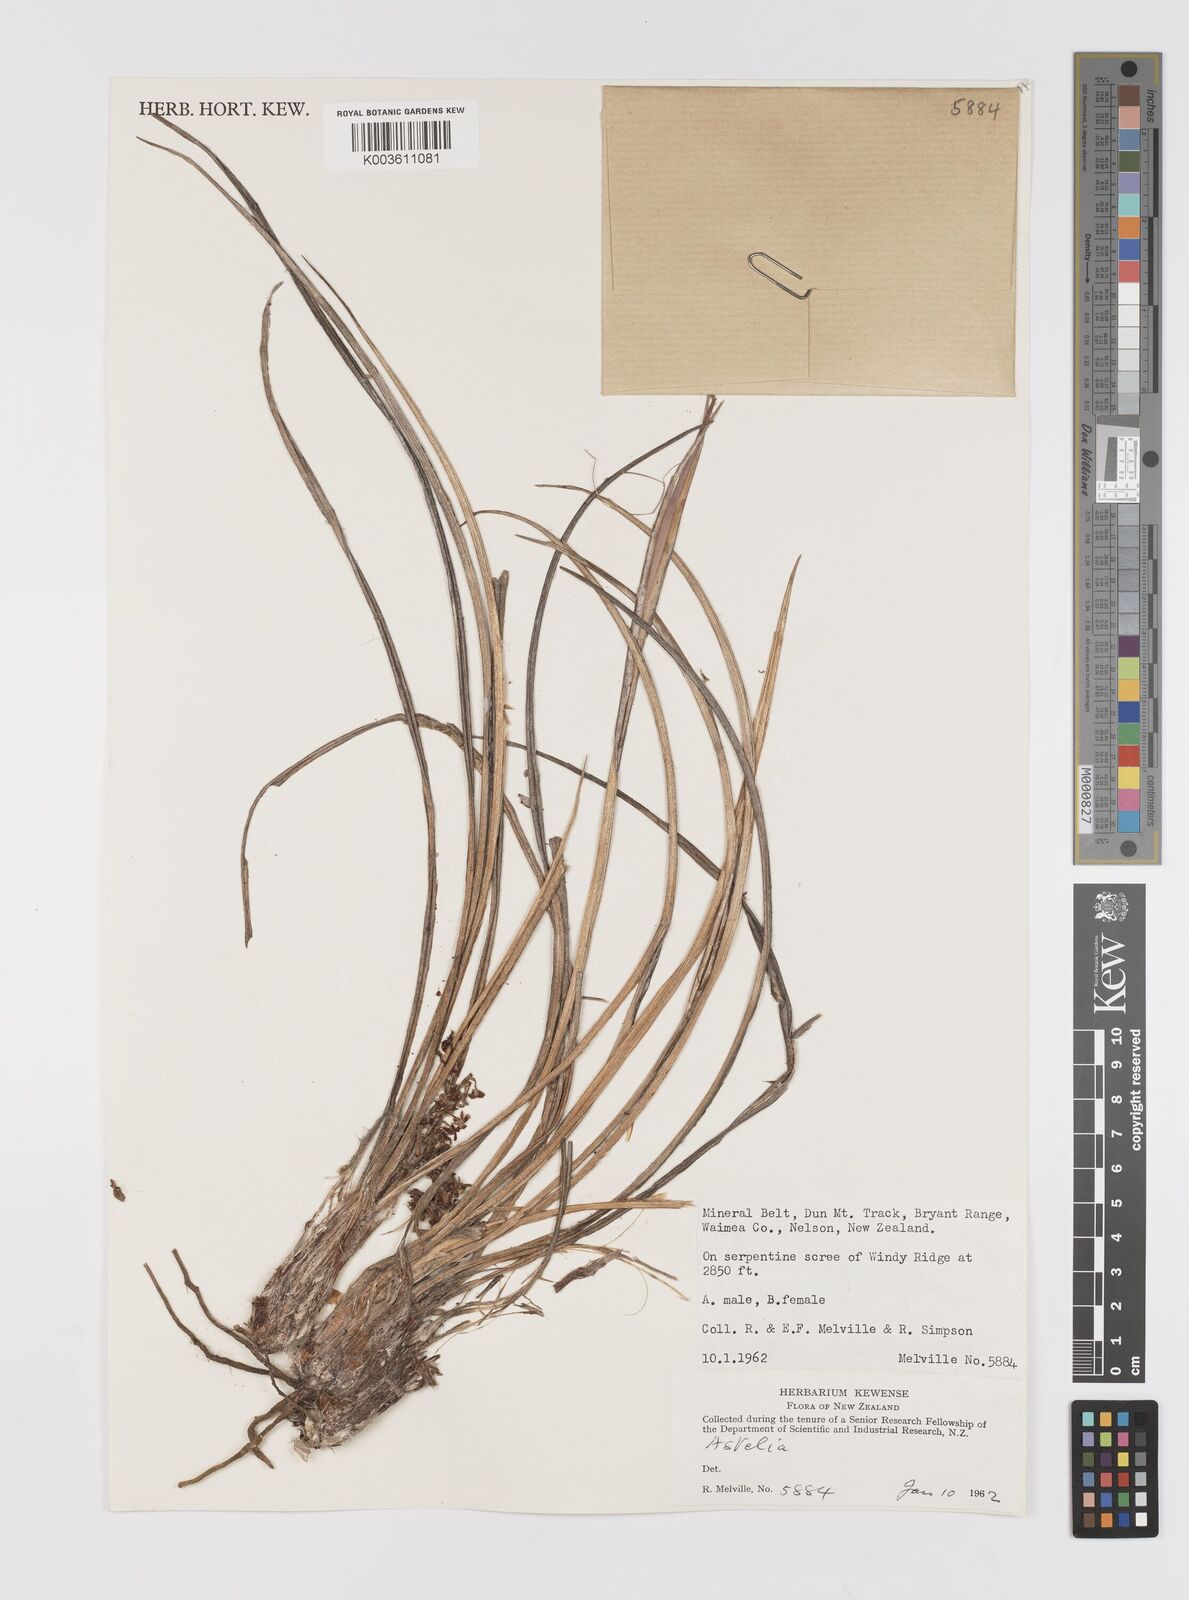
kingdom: Plantae
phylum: Tracheophyta
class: Liliopsida
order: Asparagales
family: Asteliaceae
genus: Astelia
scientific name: Astelia
